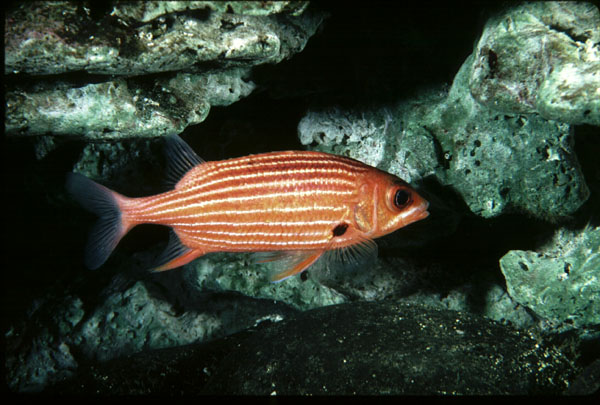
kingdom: Animalia
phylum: Chordata
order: Beryciformes
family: Holocentridae
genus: Sargocentron
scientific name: Sargocentron xantherythrum
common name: Hawaiian squirrelfish
